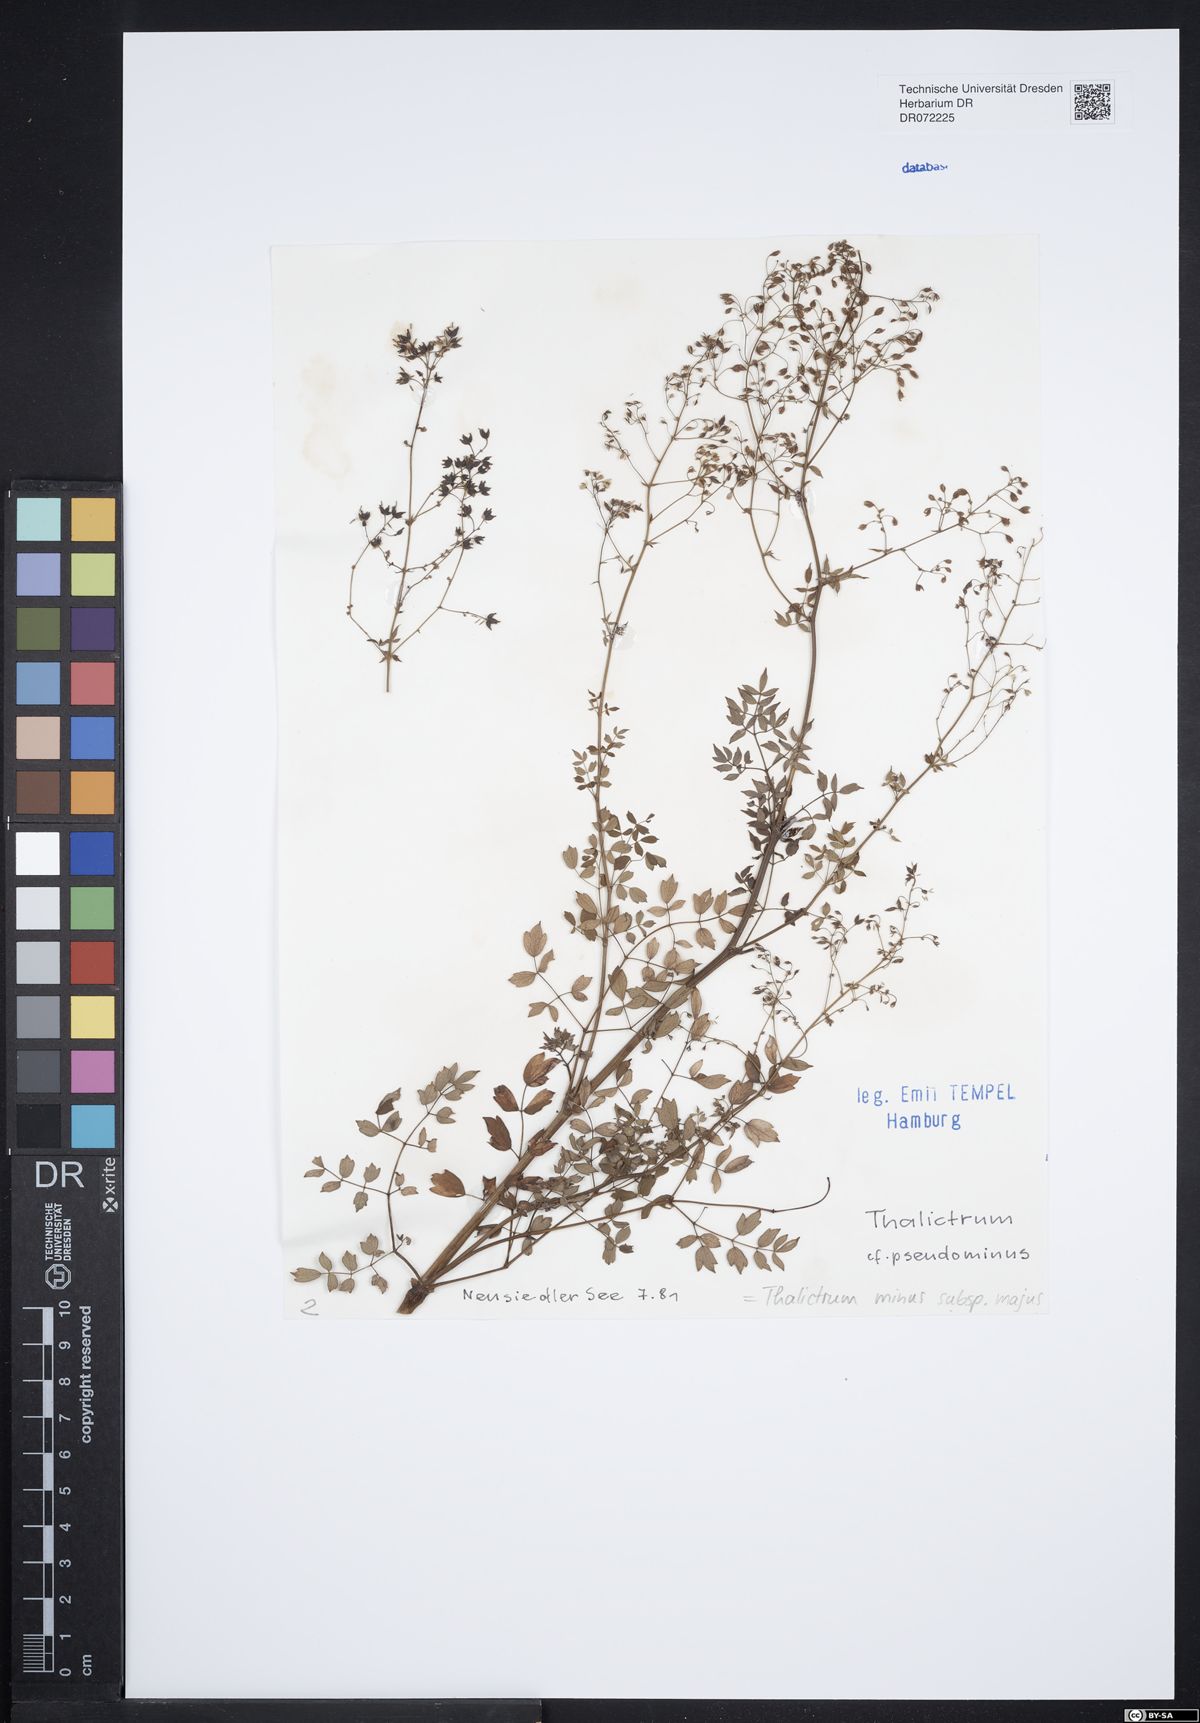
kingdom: Plantae
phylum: Tracheophyta
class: Magnoliopsida
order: Ranunculales
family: Ranunculaceae
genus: Thalictrum
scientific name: Thalictrum minus
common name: Lesser meadow-rue
